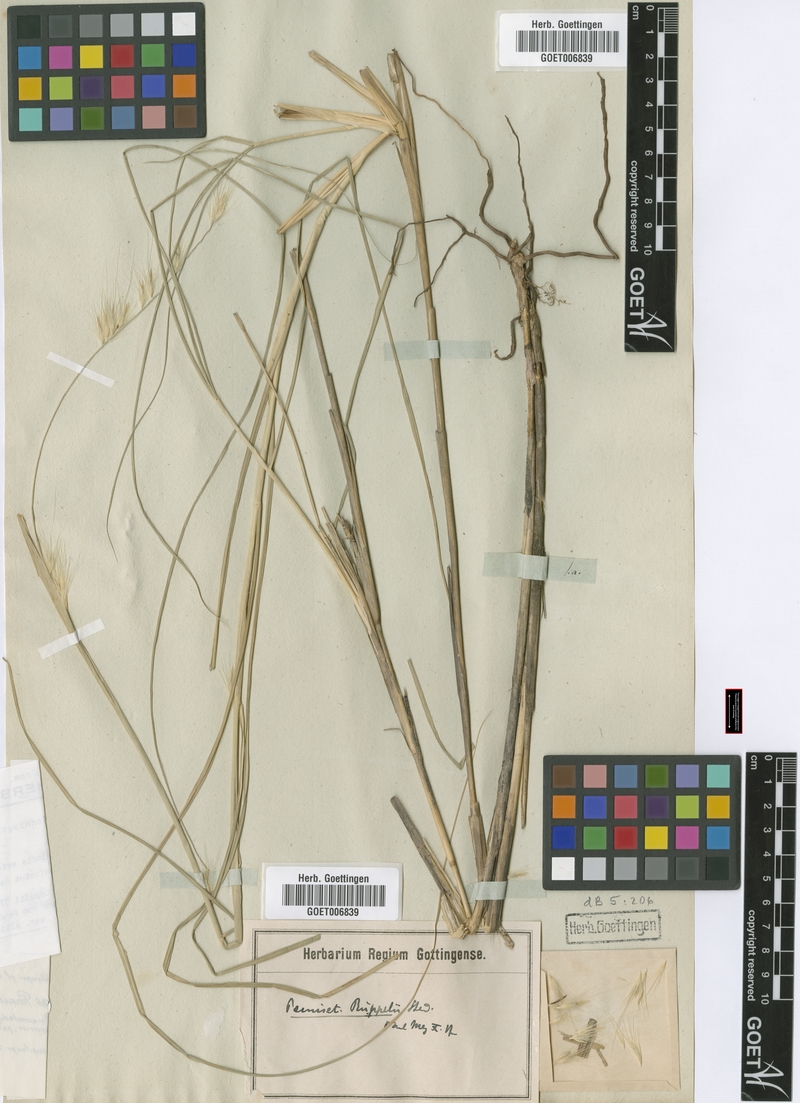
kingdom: Plantae
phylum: Tracheophyta
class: Liliopsida
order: Poales
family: Poaceae
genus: Cenchrus
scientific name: Cenchrus setaceus
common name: Crimson fountaingrass
